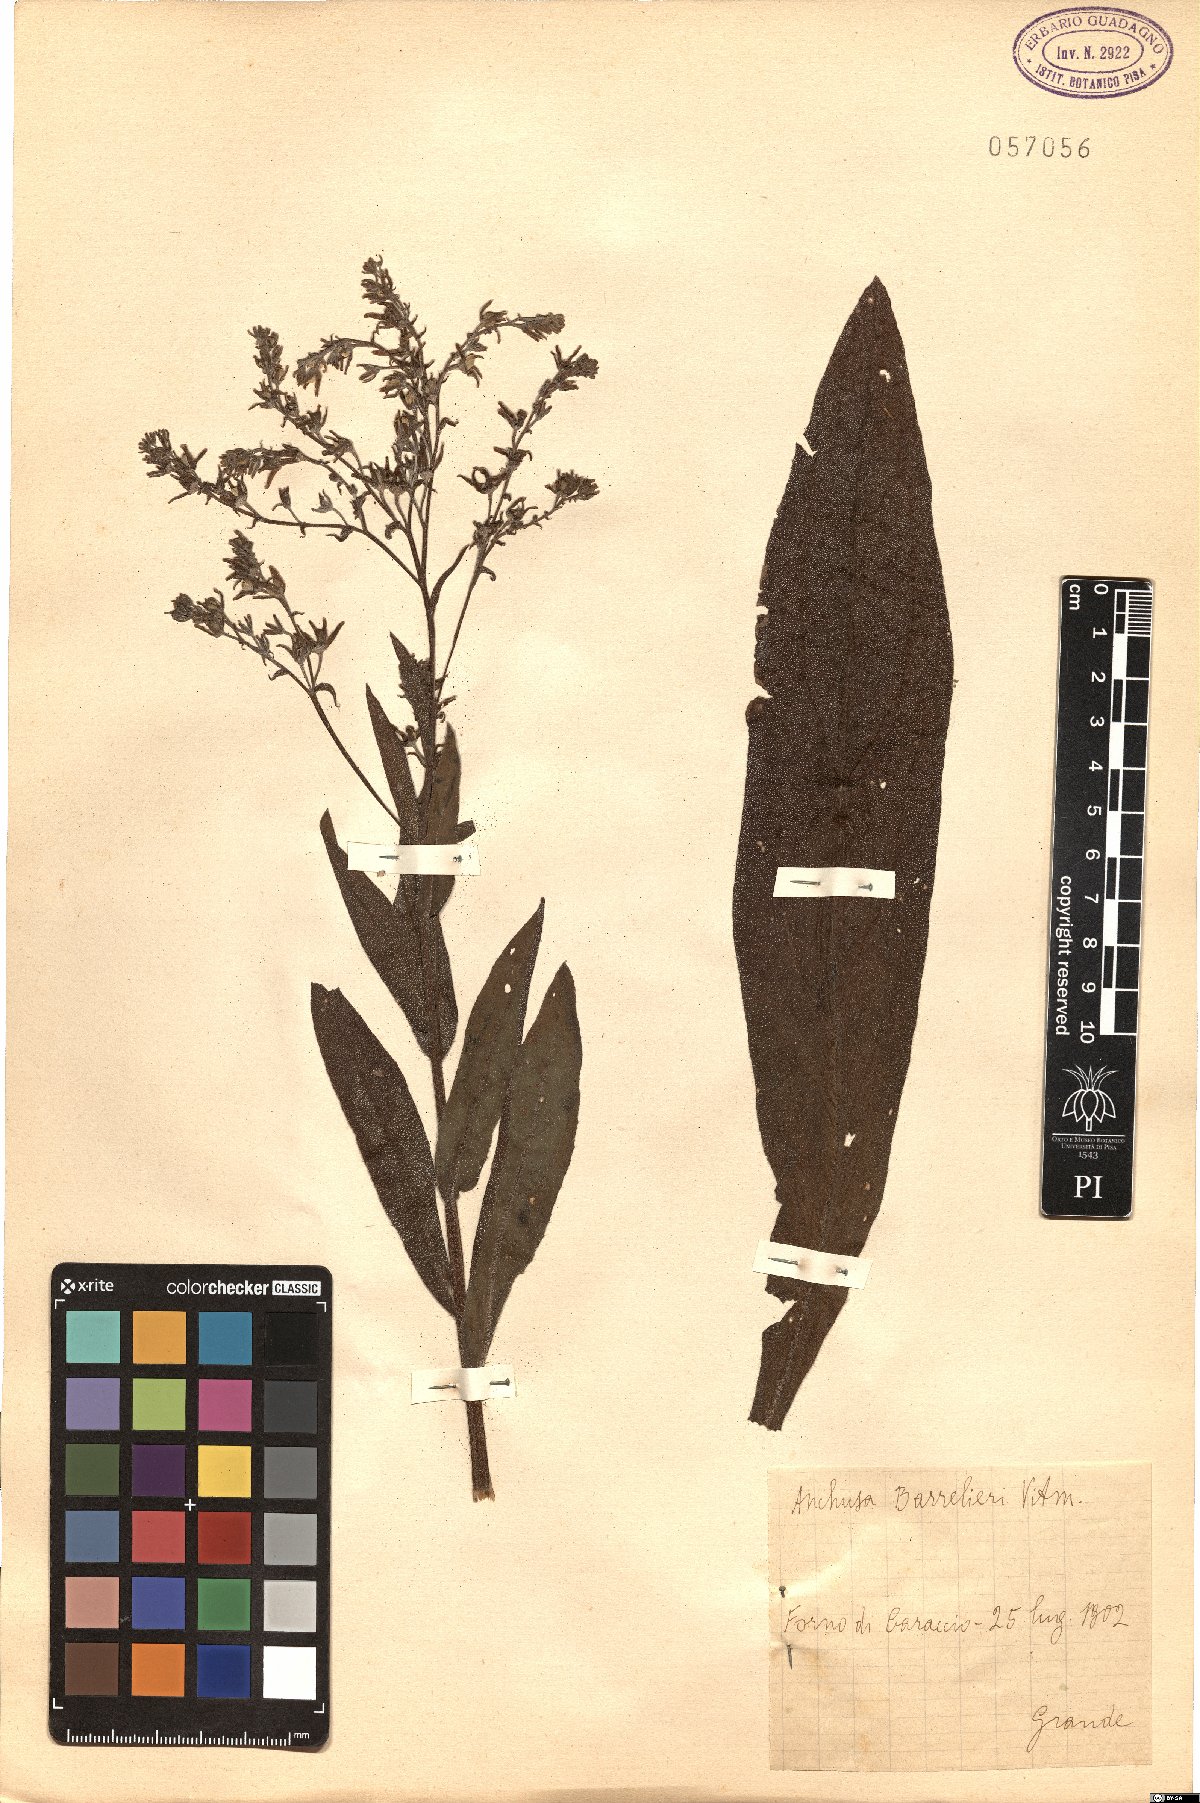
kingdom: Plantae
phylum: Tracheophyta
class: Magnoliopsida
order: Boraginales
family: Boraginaceae
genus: Cynoglottis
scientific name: Cynoglottis barrelieri
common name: False alkanet
